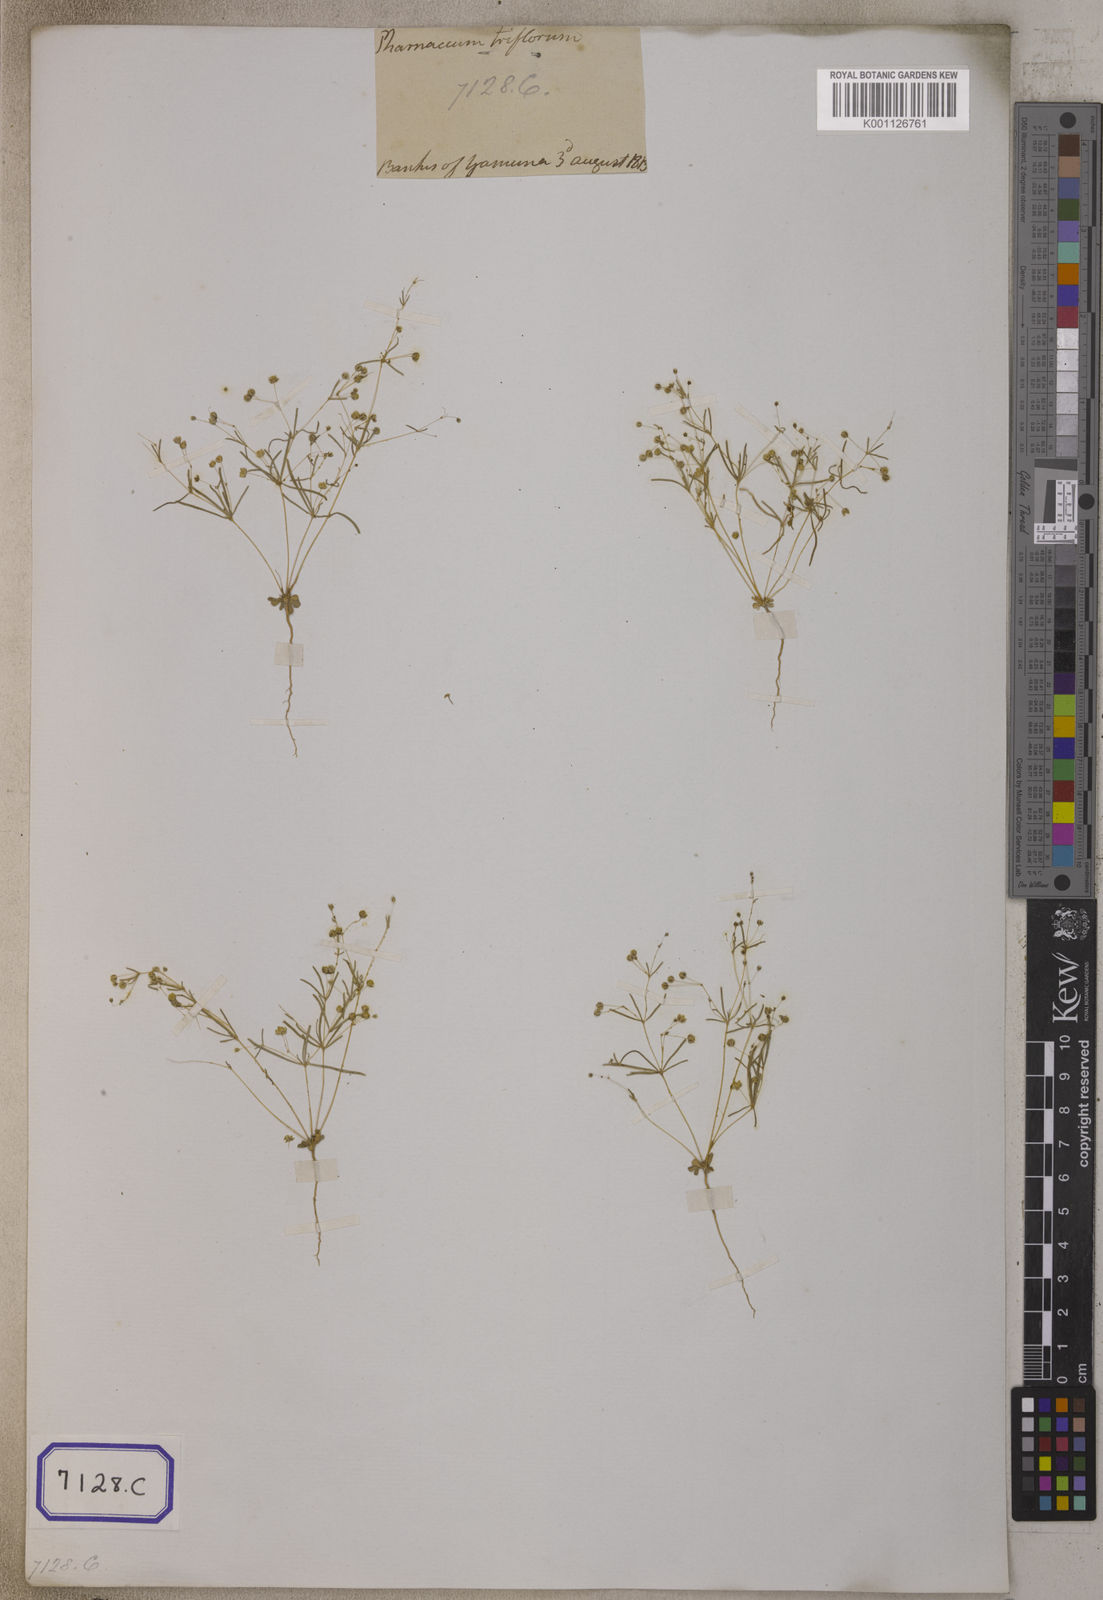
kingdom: Plantae
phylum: Tracheophyta
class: Magnoliopsida
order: Caryophyllales
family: Molluginaceae
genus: Pharnaceum
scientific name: Pharnaceum
